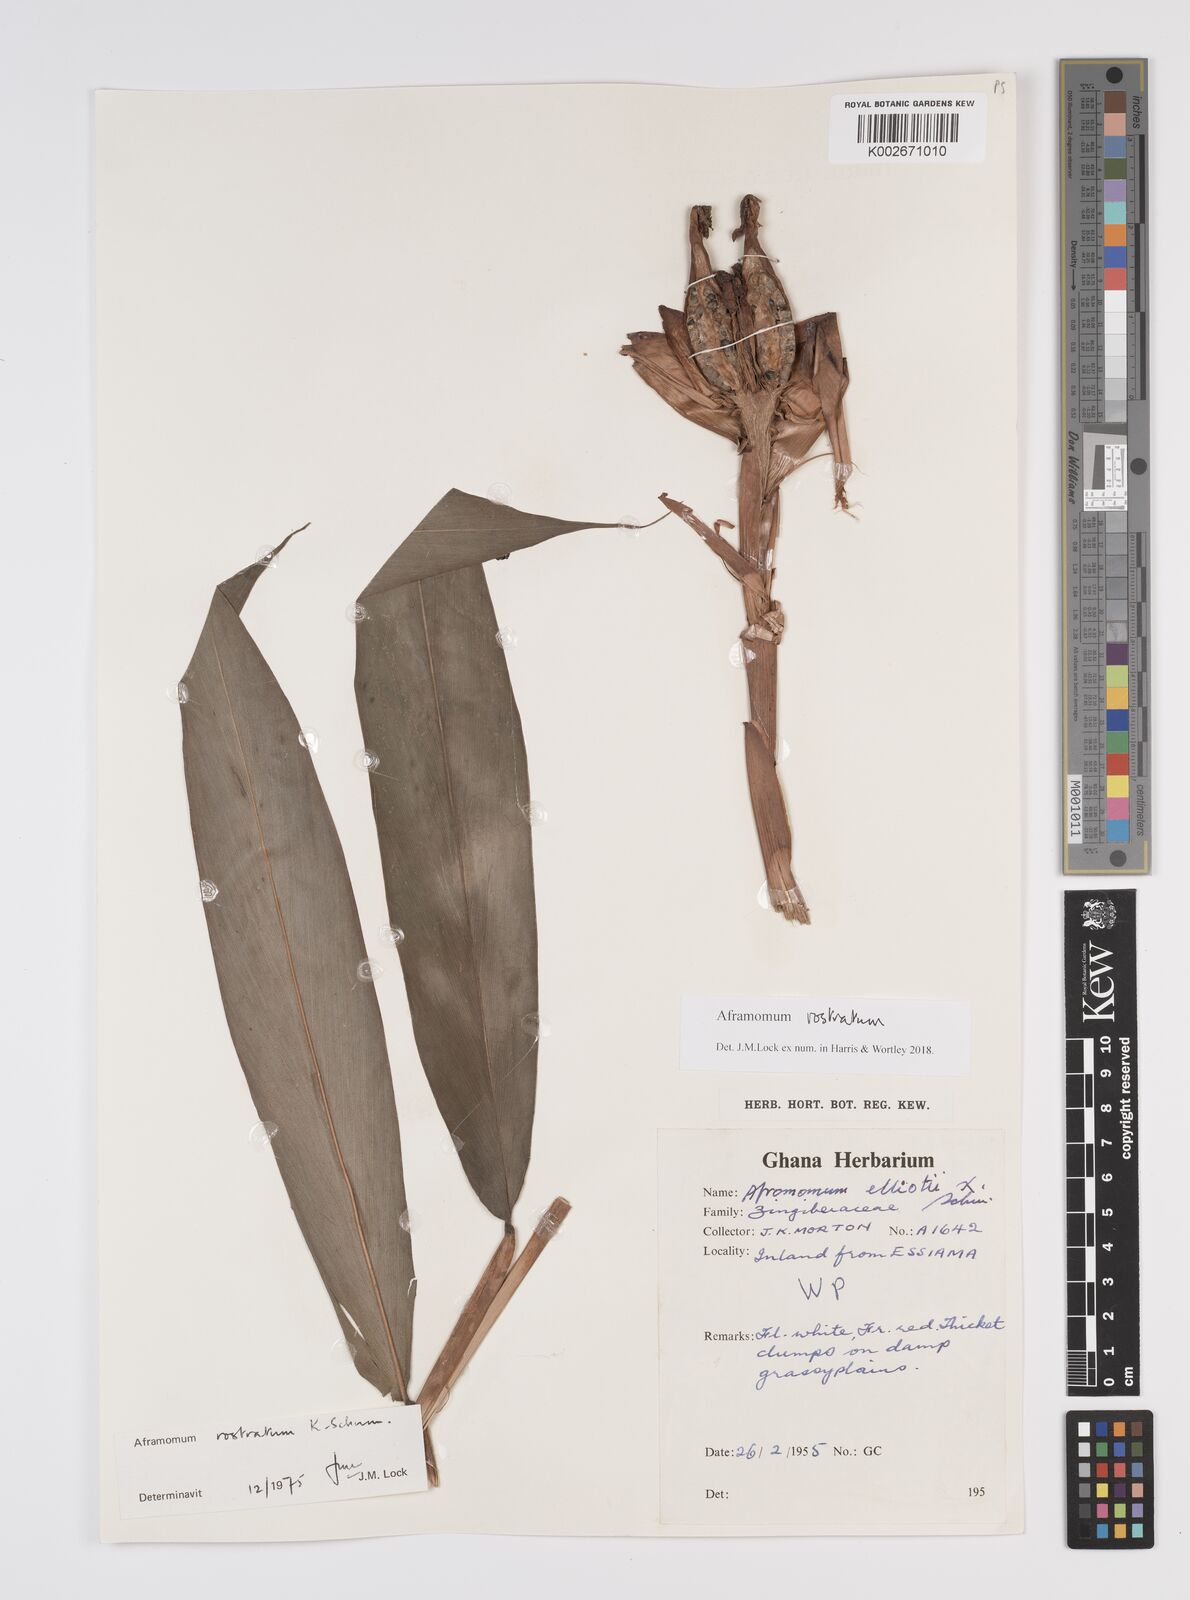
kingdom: Plantae
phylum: Tracheophyta
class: Liliopsida
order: Zingiberales
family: Zingiberaceae
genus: Aframomum
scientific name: Aframomum rostratum
